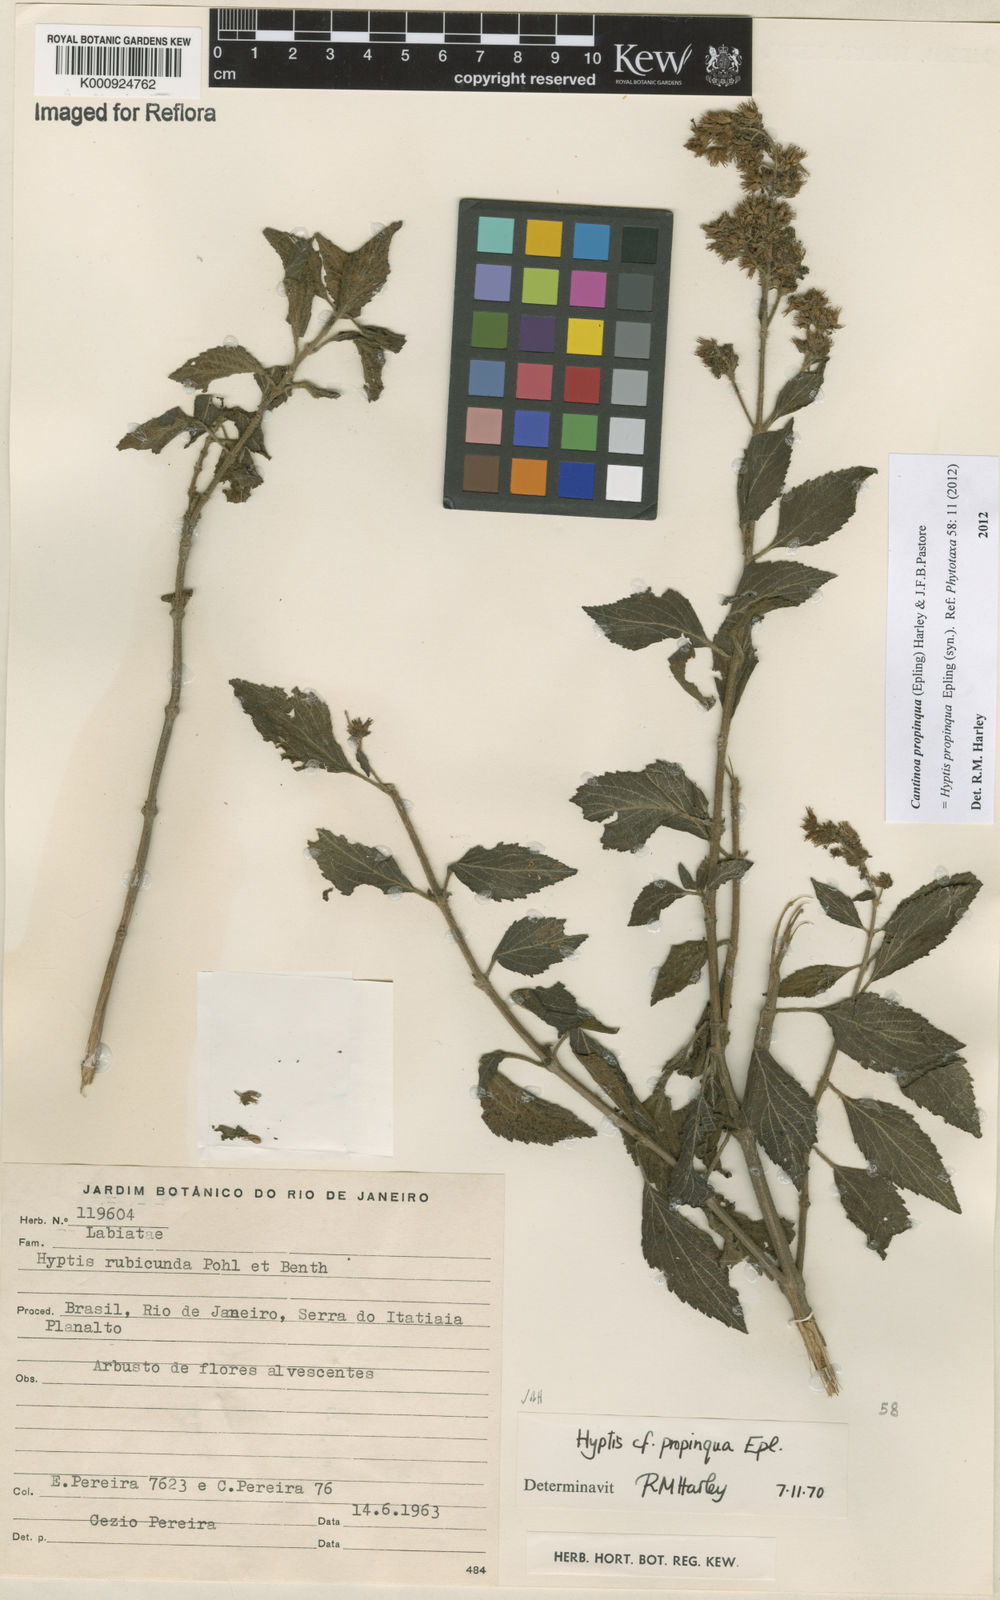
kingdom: Plantae
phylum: Tracheophyta
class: Magnoliopsida
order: Lamiales
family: Lamiaceae
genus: Cantinoa
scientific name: Cantinoa propinqua
